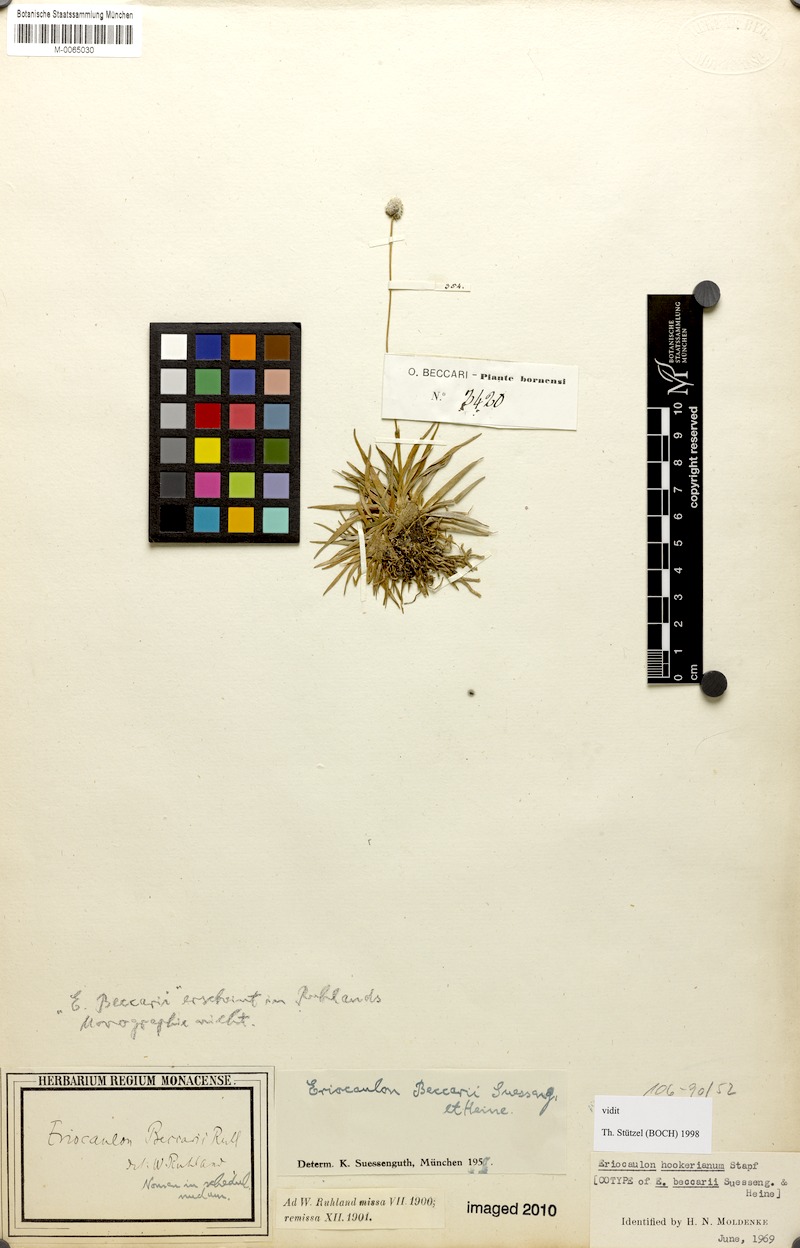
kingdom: Plantae
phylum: Tracheophyta
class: Liliopsida
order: Poales
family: Eriocaulaceae
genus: Eriocaulon
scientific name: Eriocaulon hookerianum
